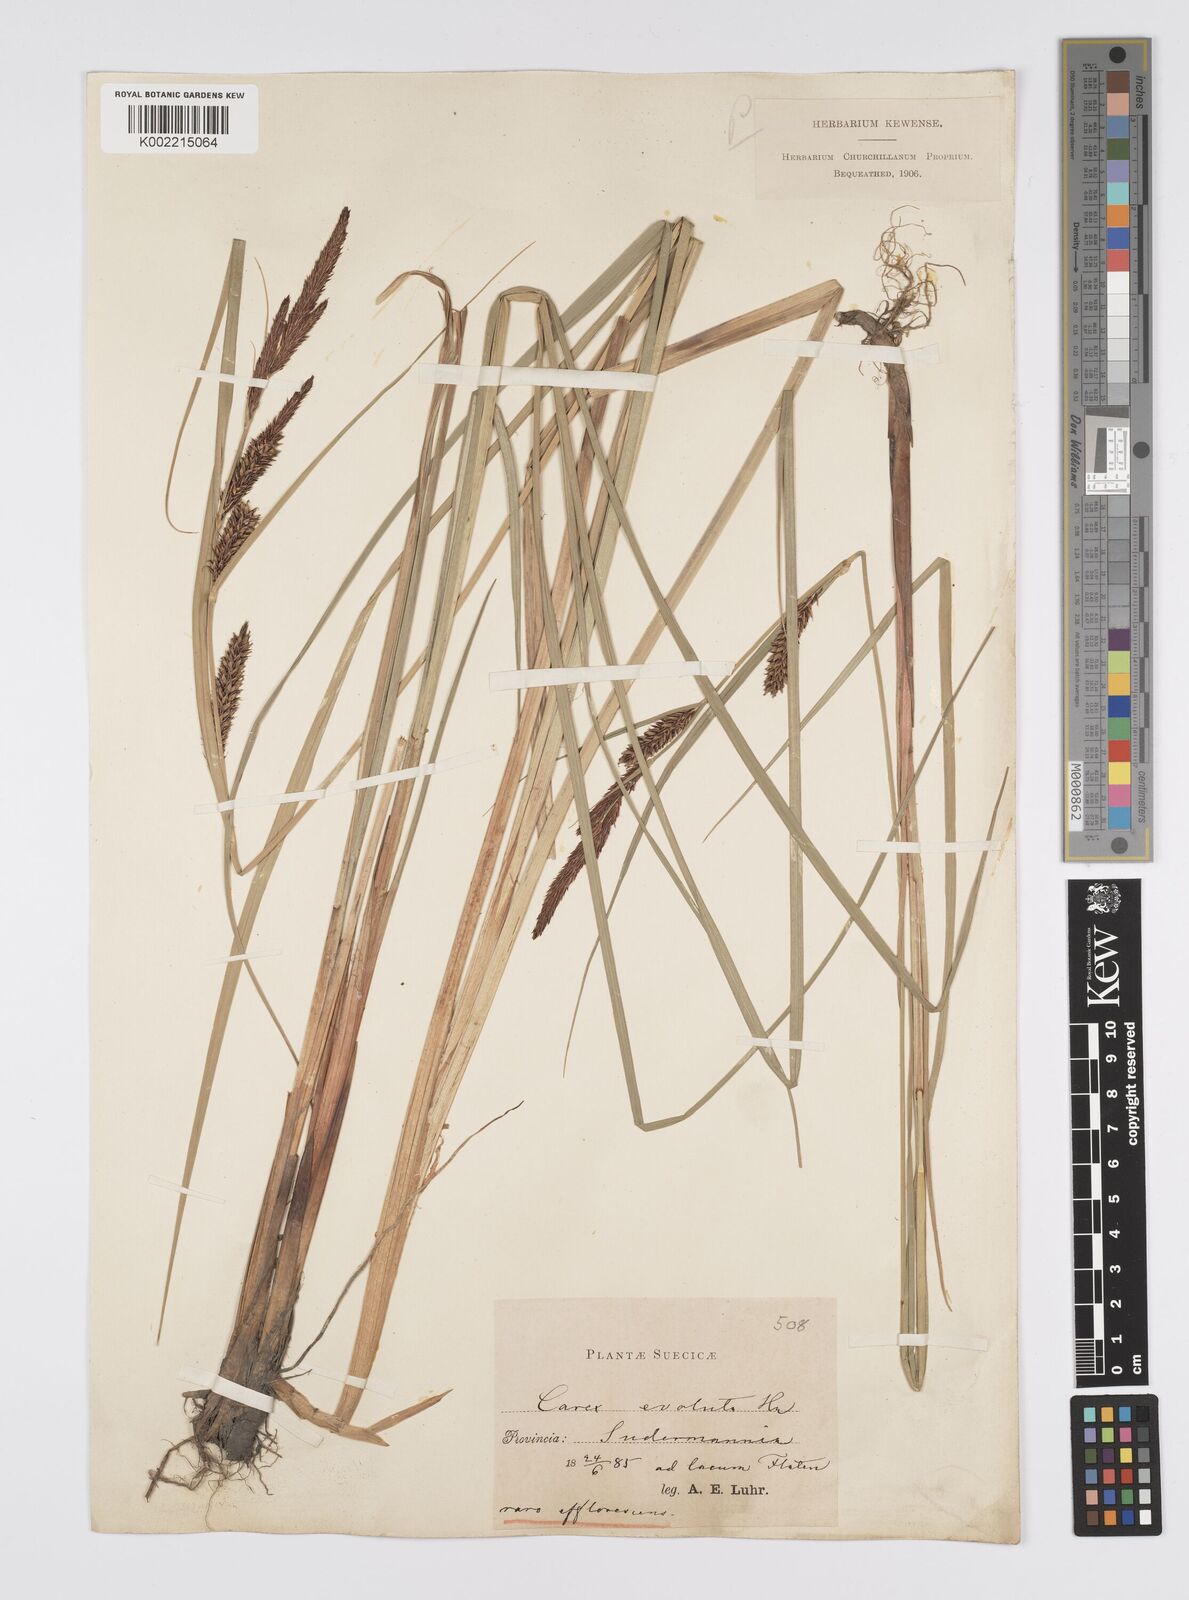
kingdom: Plantae
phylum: Tracheophyta
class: Liliopsida
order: Poales
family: Cyperaceae
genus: Carex
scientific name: Carex evoluta
